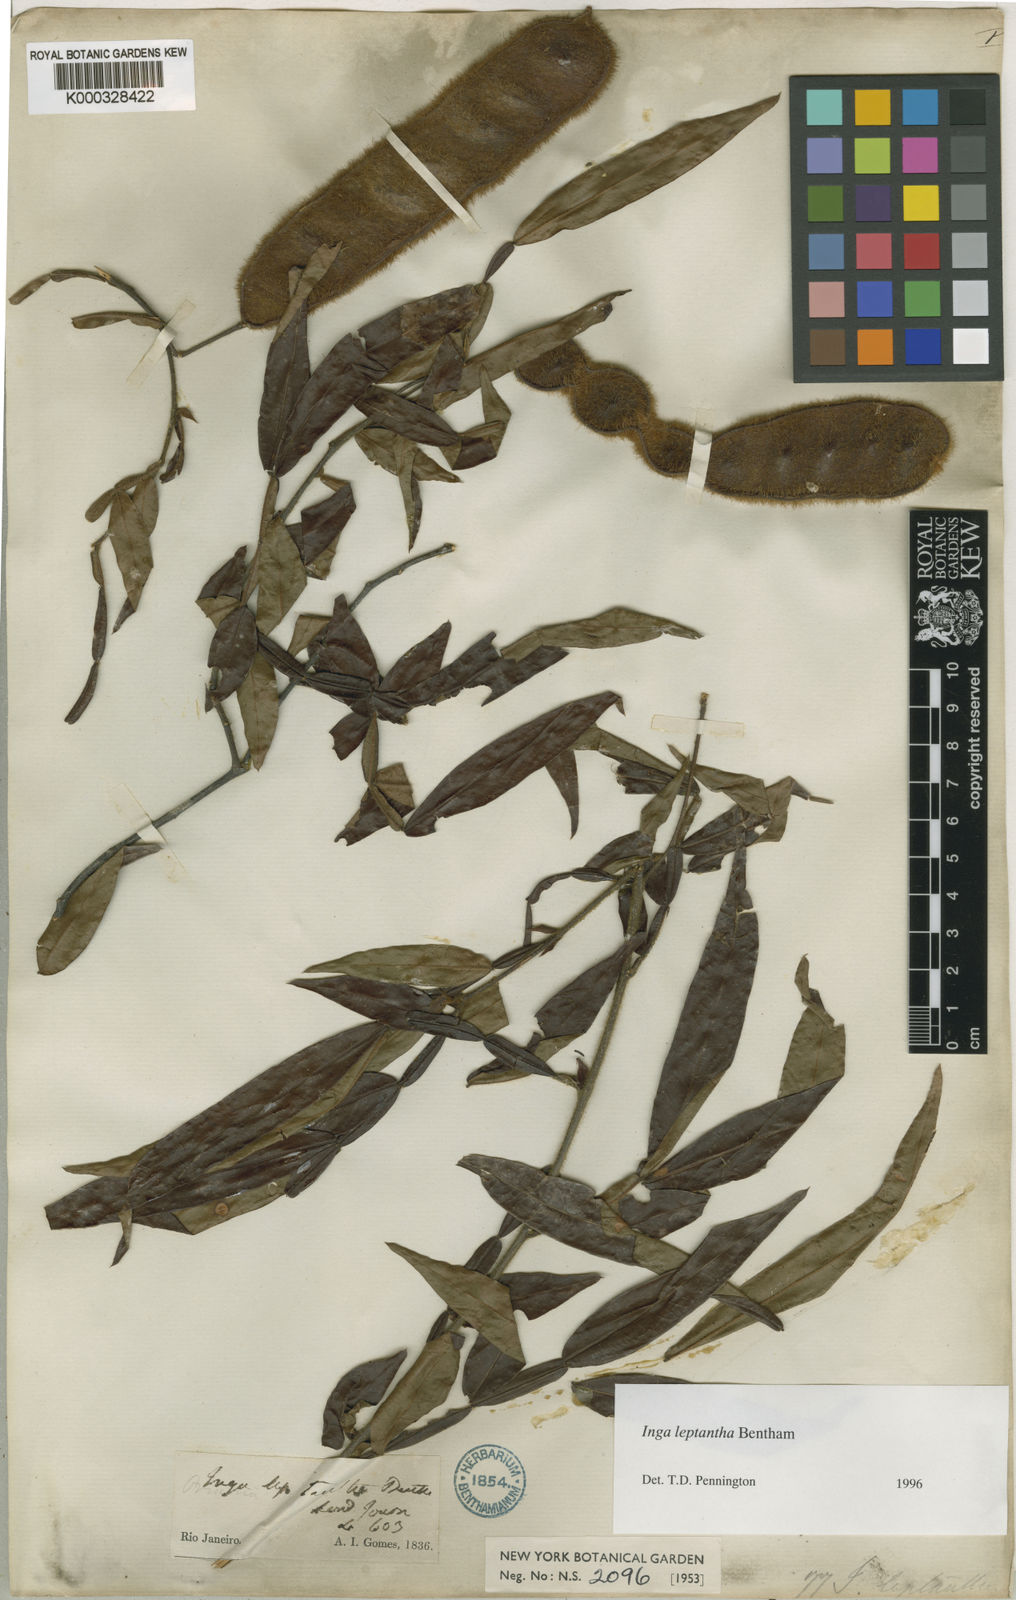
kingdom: Plantae
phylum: Tracheophyta
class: Magnoliopsida
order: Fabales
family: Fabaceae
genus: Inga
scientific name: Inga leptantha
